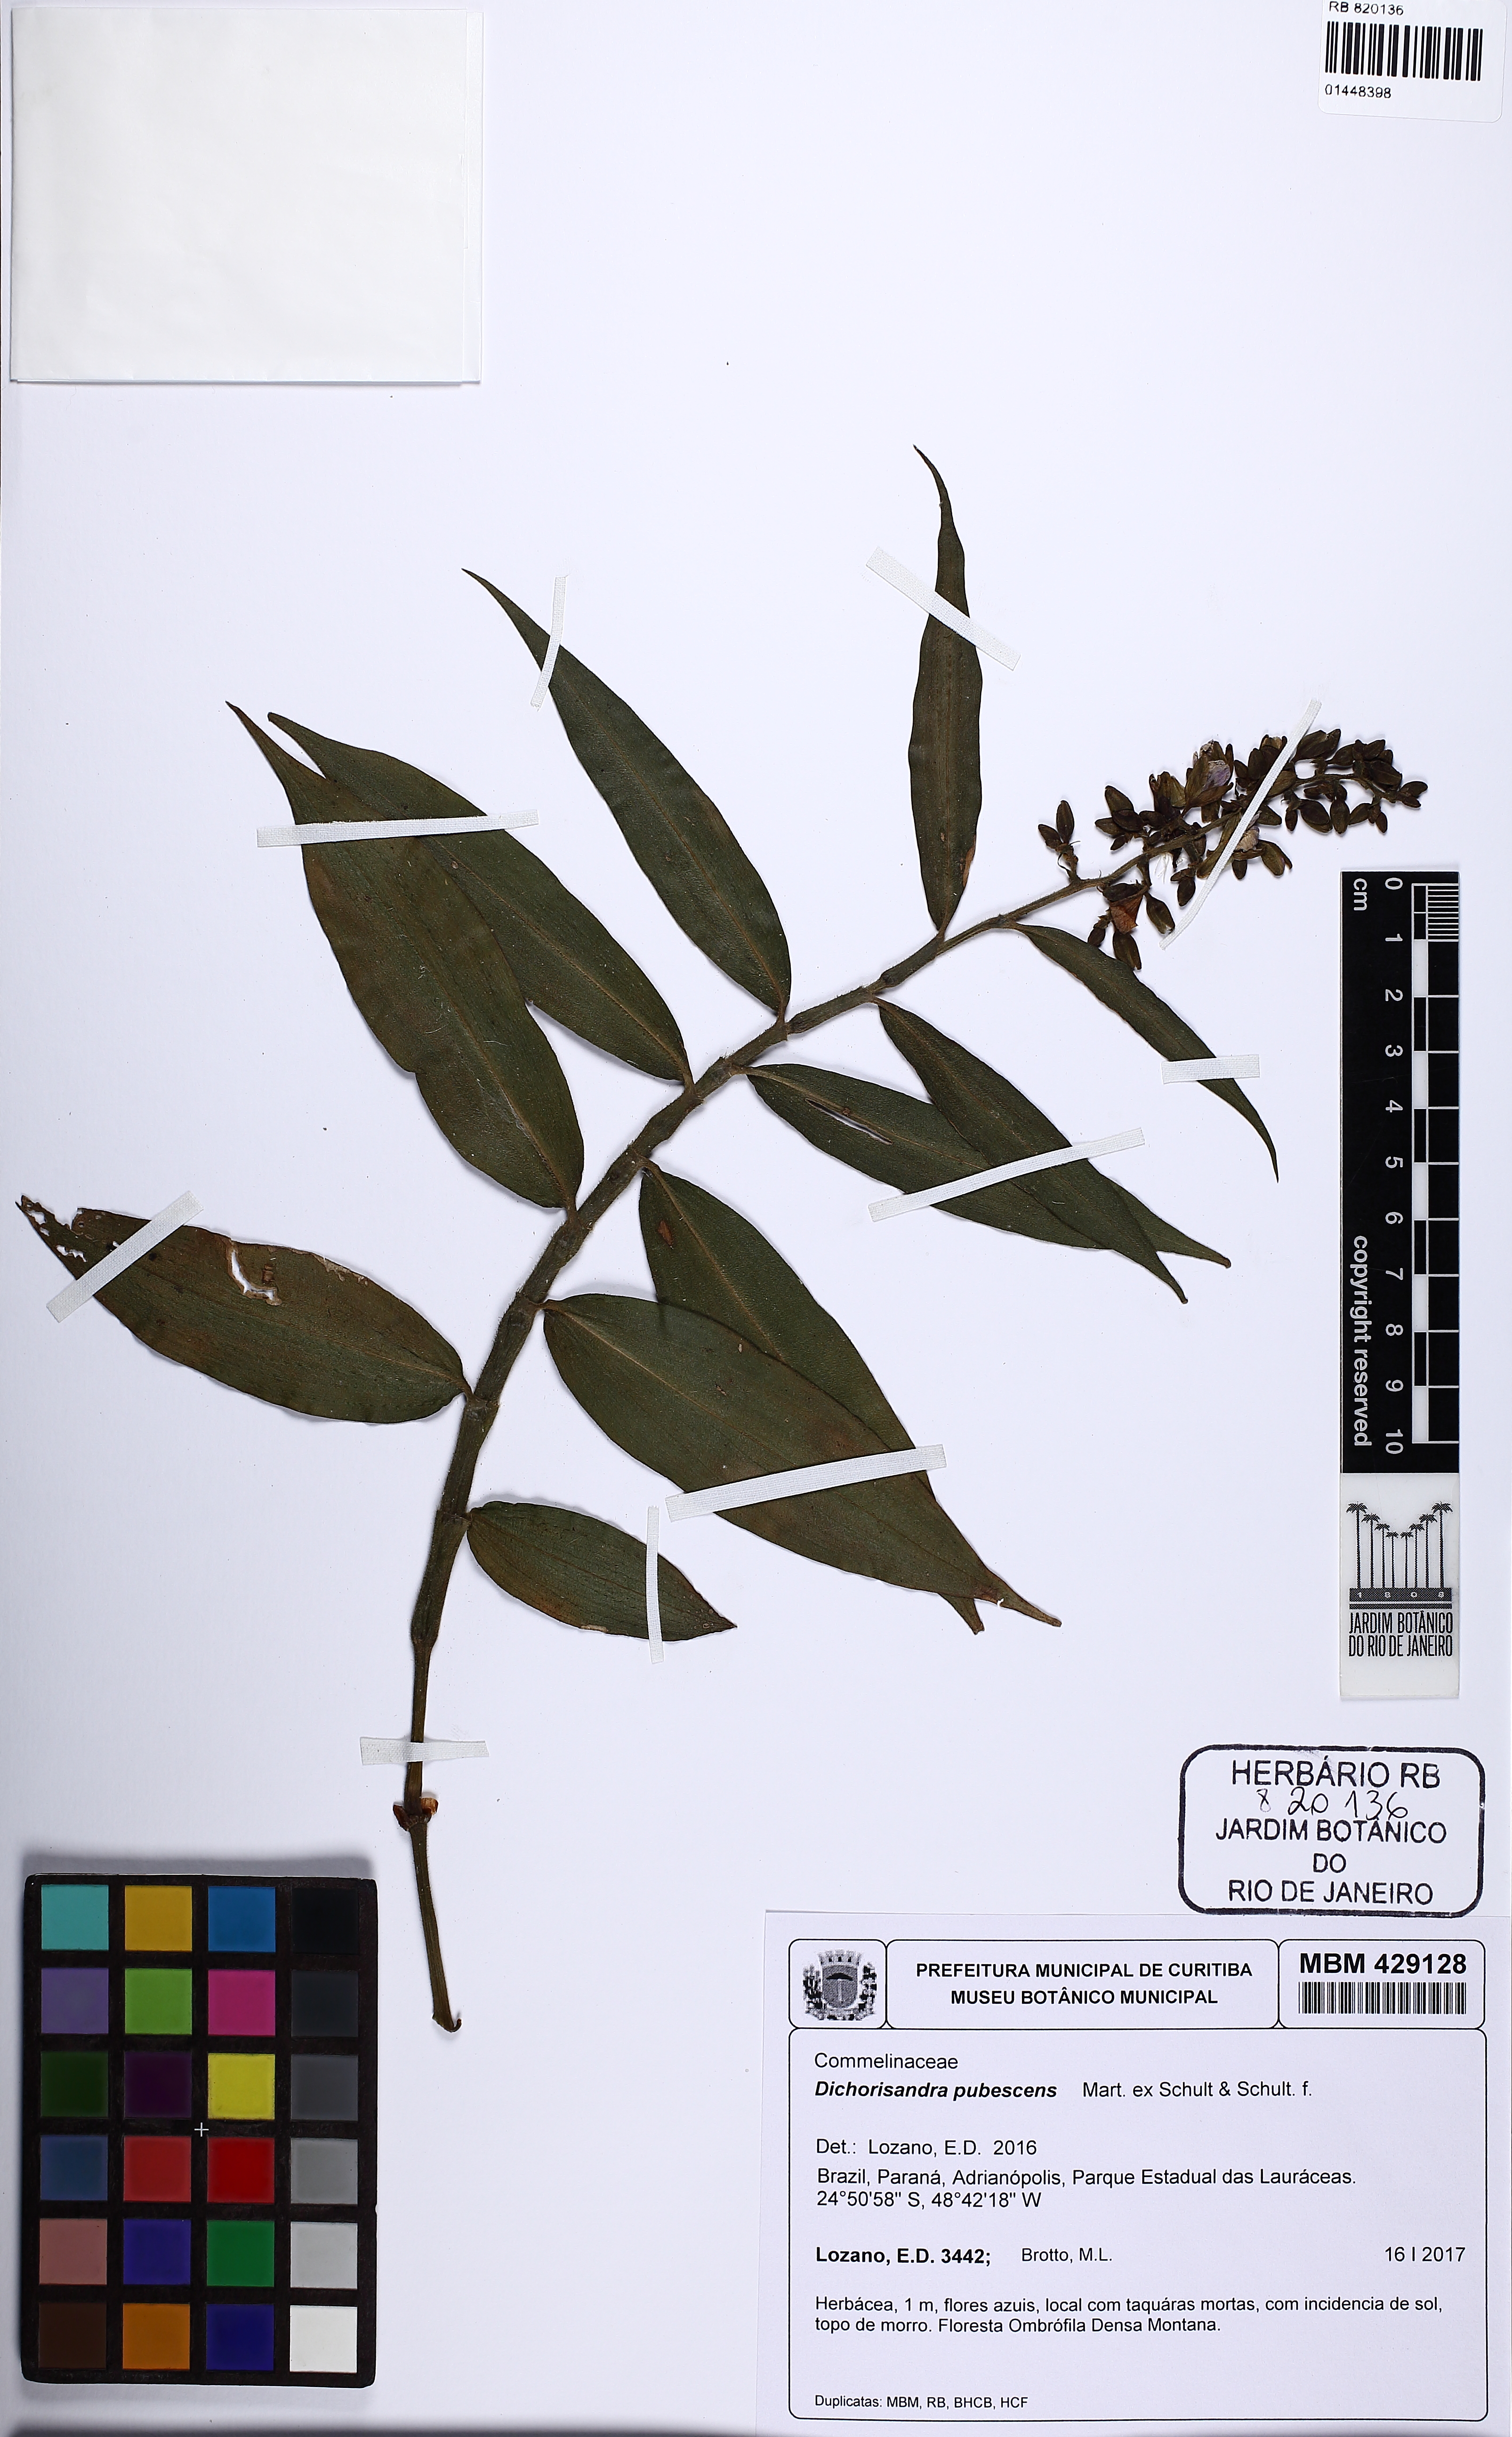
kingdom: Plantae
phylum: Tracheophyta
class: Liliopsida
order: Commelinales
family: Commelinaceae
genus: Dichorisandra
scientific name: Dichorisandra pubescens
